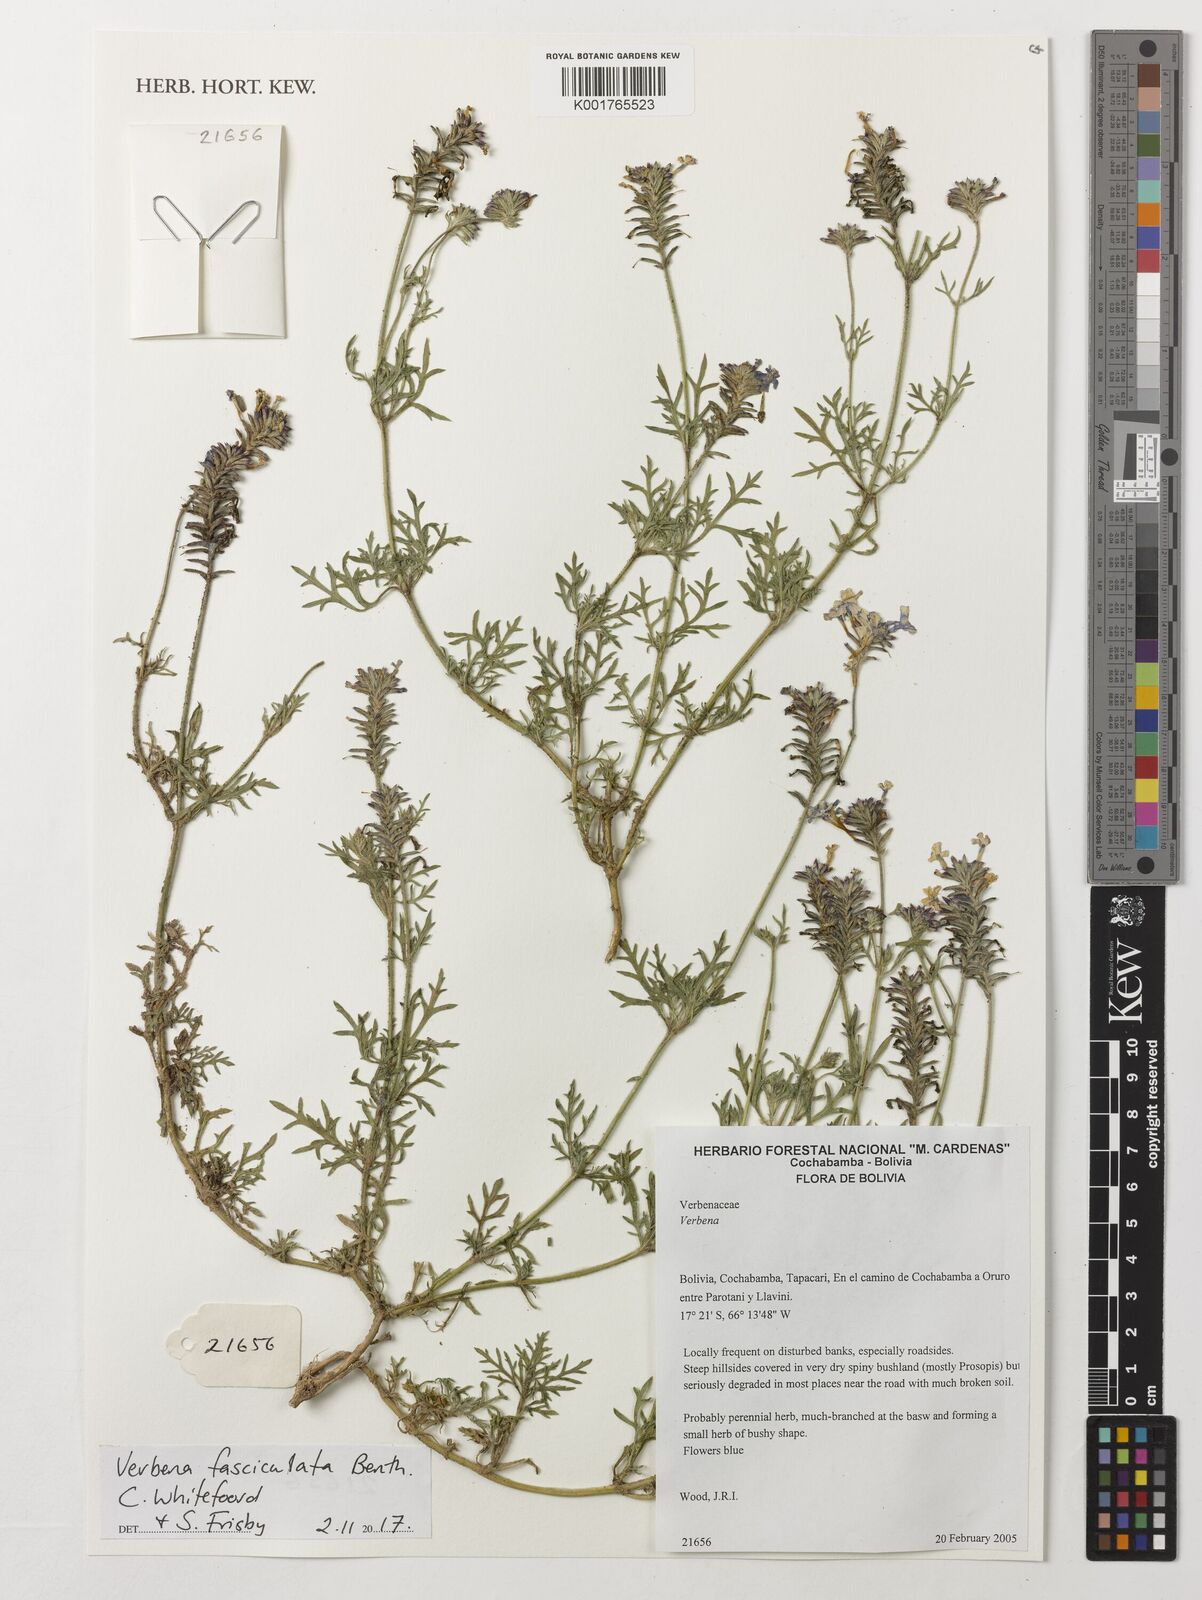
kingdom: Plantae
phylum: Tracheophyta
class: Magnoliopsida
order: Lamiales
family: Verbenaceae
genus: Junellia
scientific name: Junellia fasciculata
